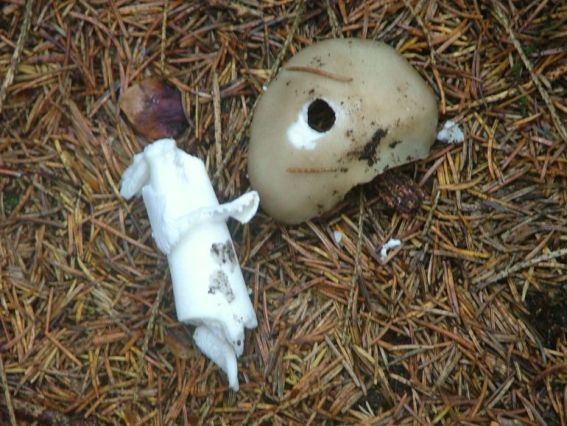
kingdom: Fungi
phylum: Basidiomycota
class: Agaricomycetes
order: Agaricales
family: Amanitaceae
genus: Amanita
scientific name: Amanita
